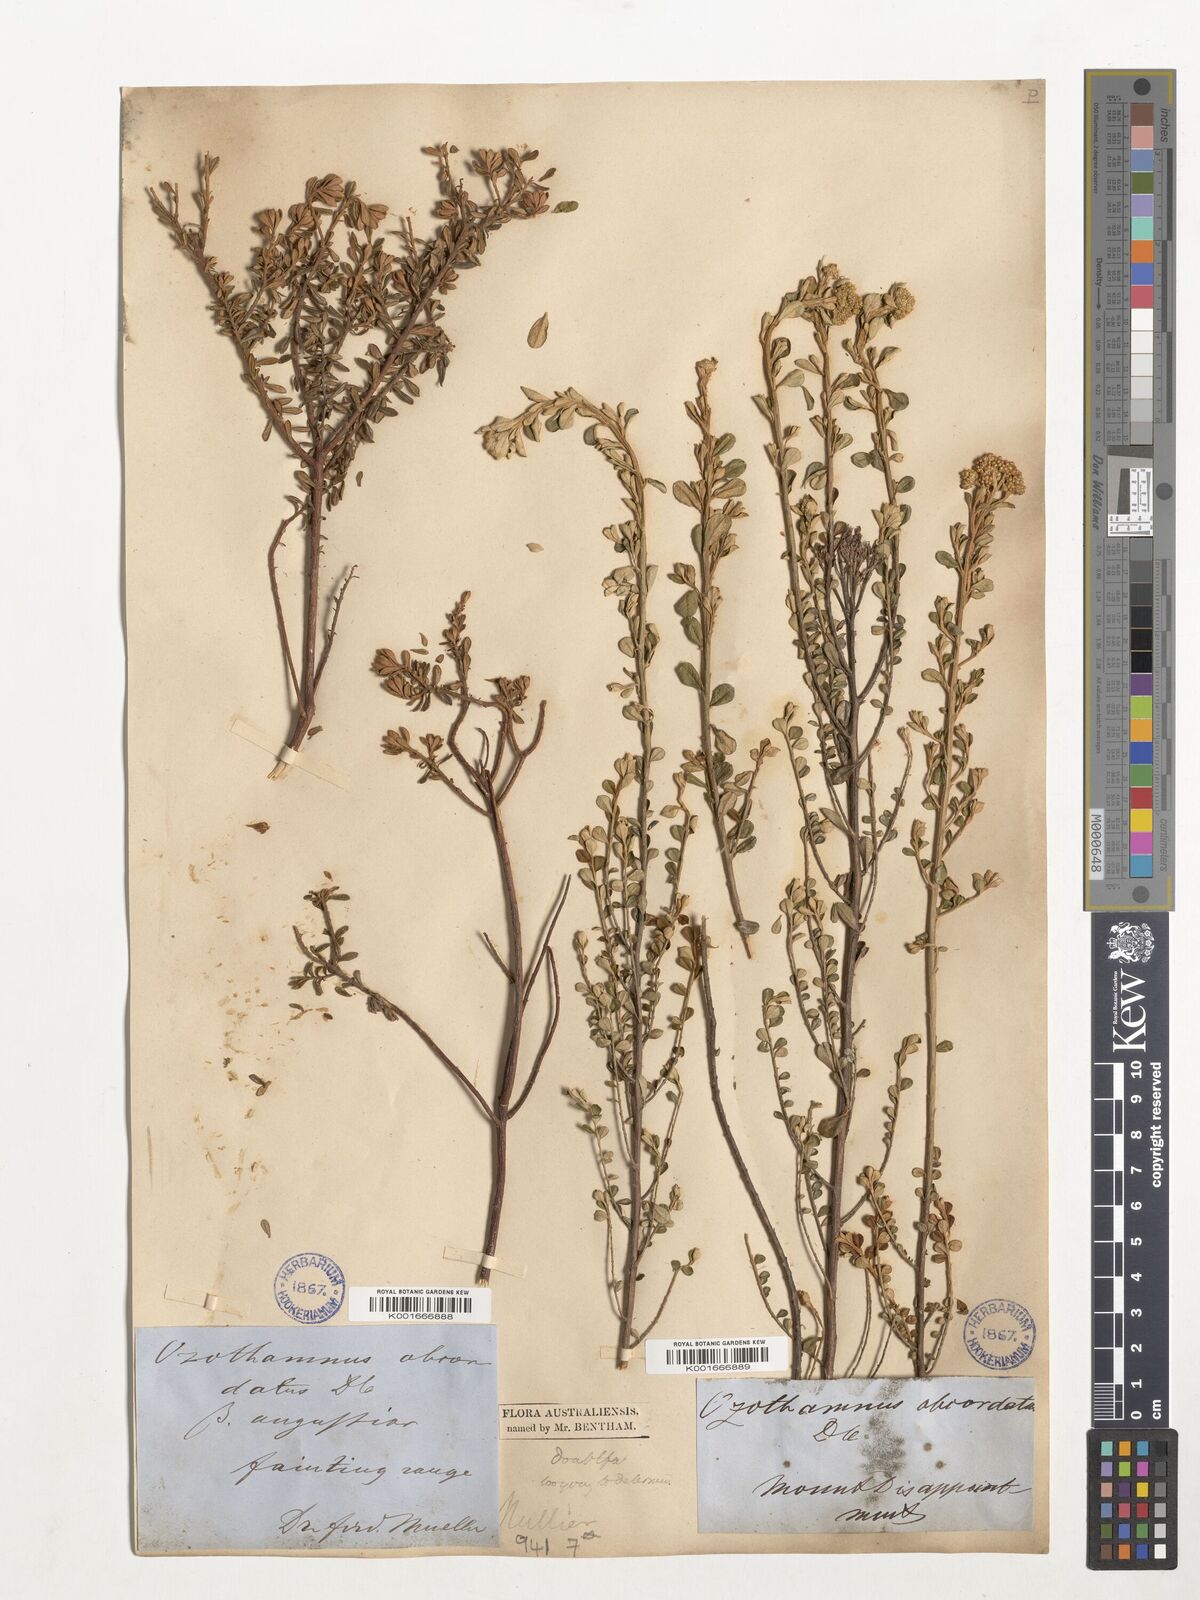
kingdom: Plantae
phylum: Tracheophyta
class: Magnoliopsida
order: Asterales
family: Asteraceae
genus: Ozothamnus
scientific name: Ozothamnus
